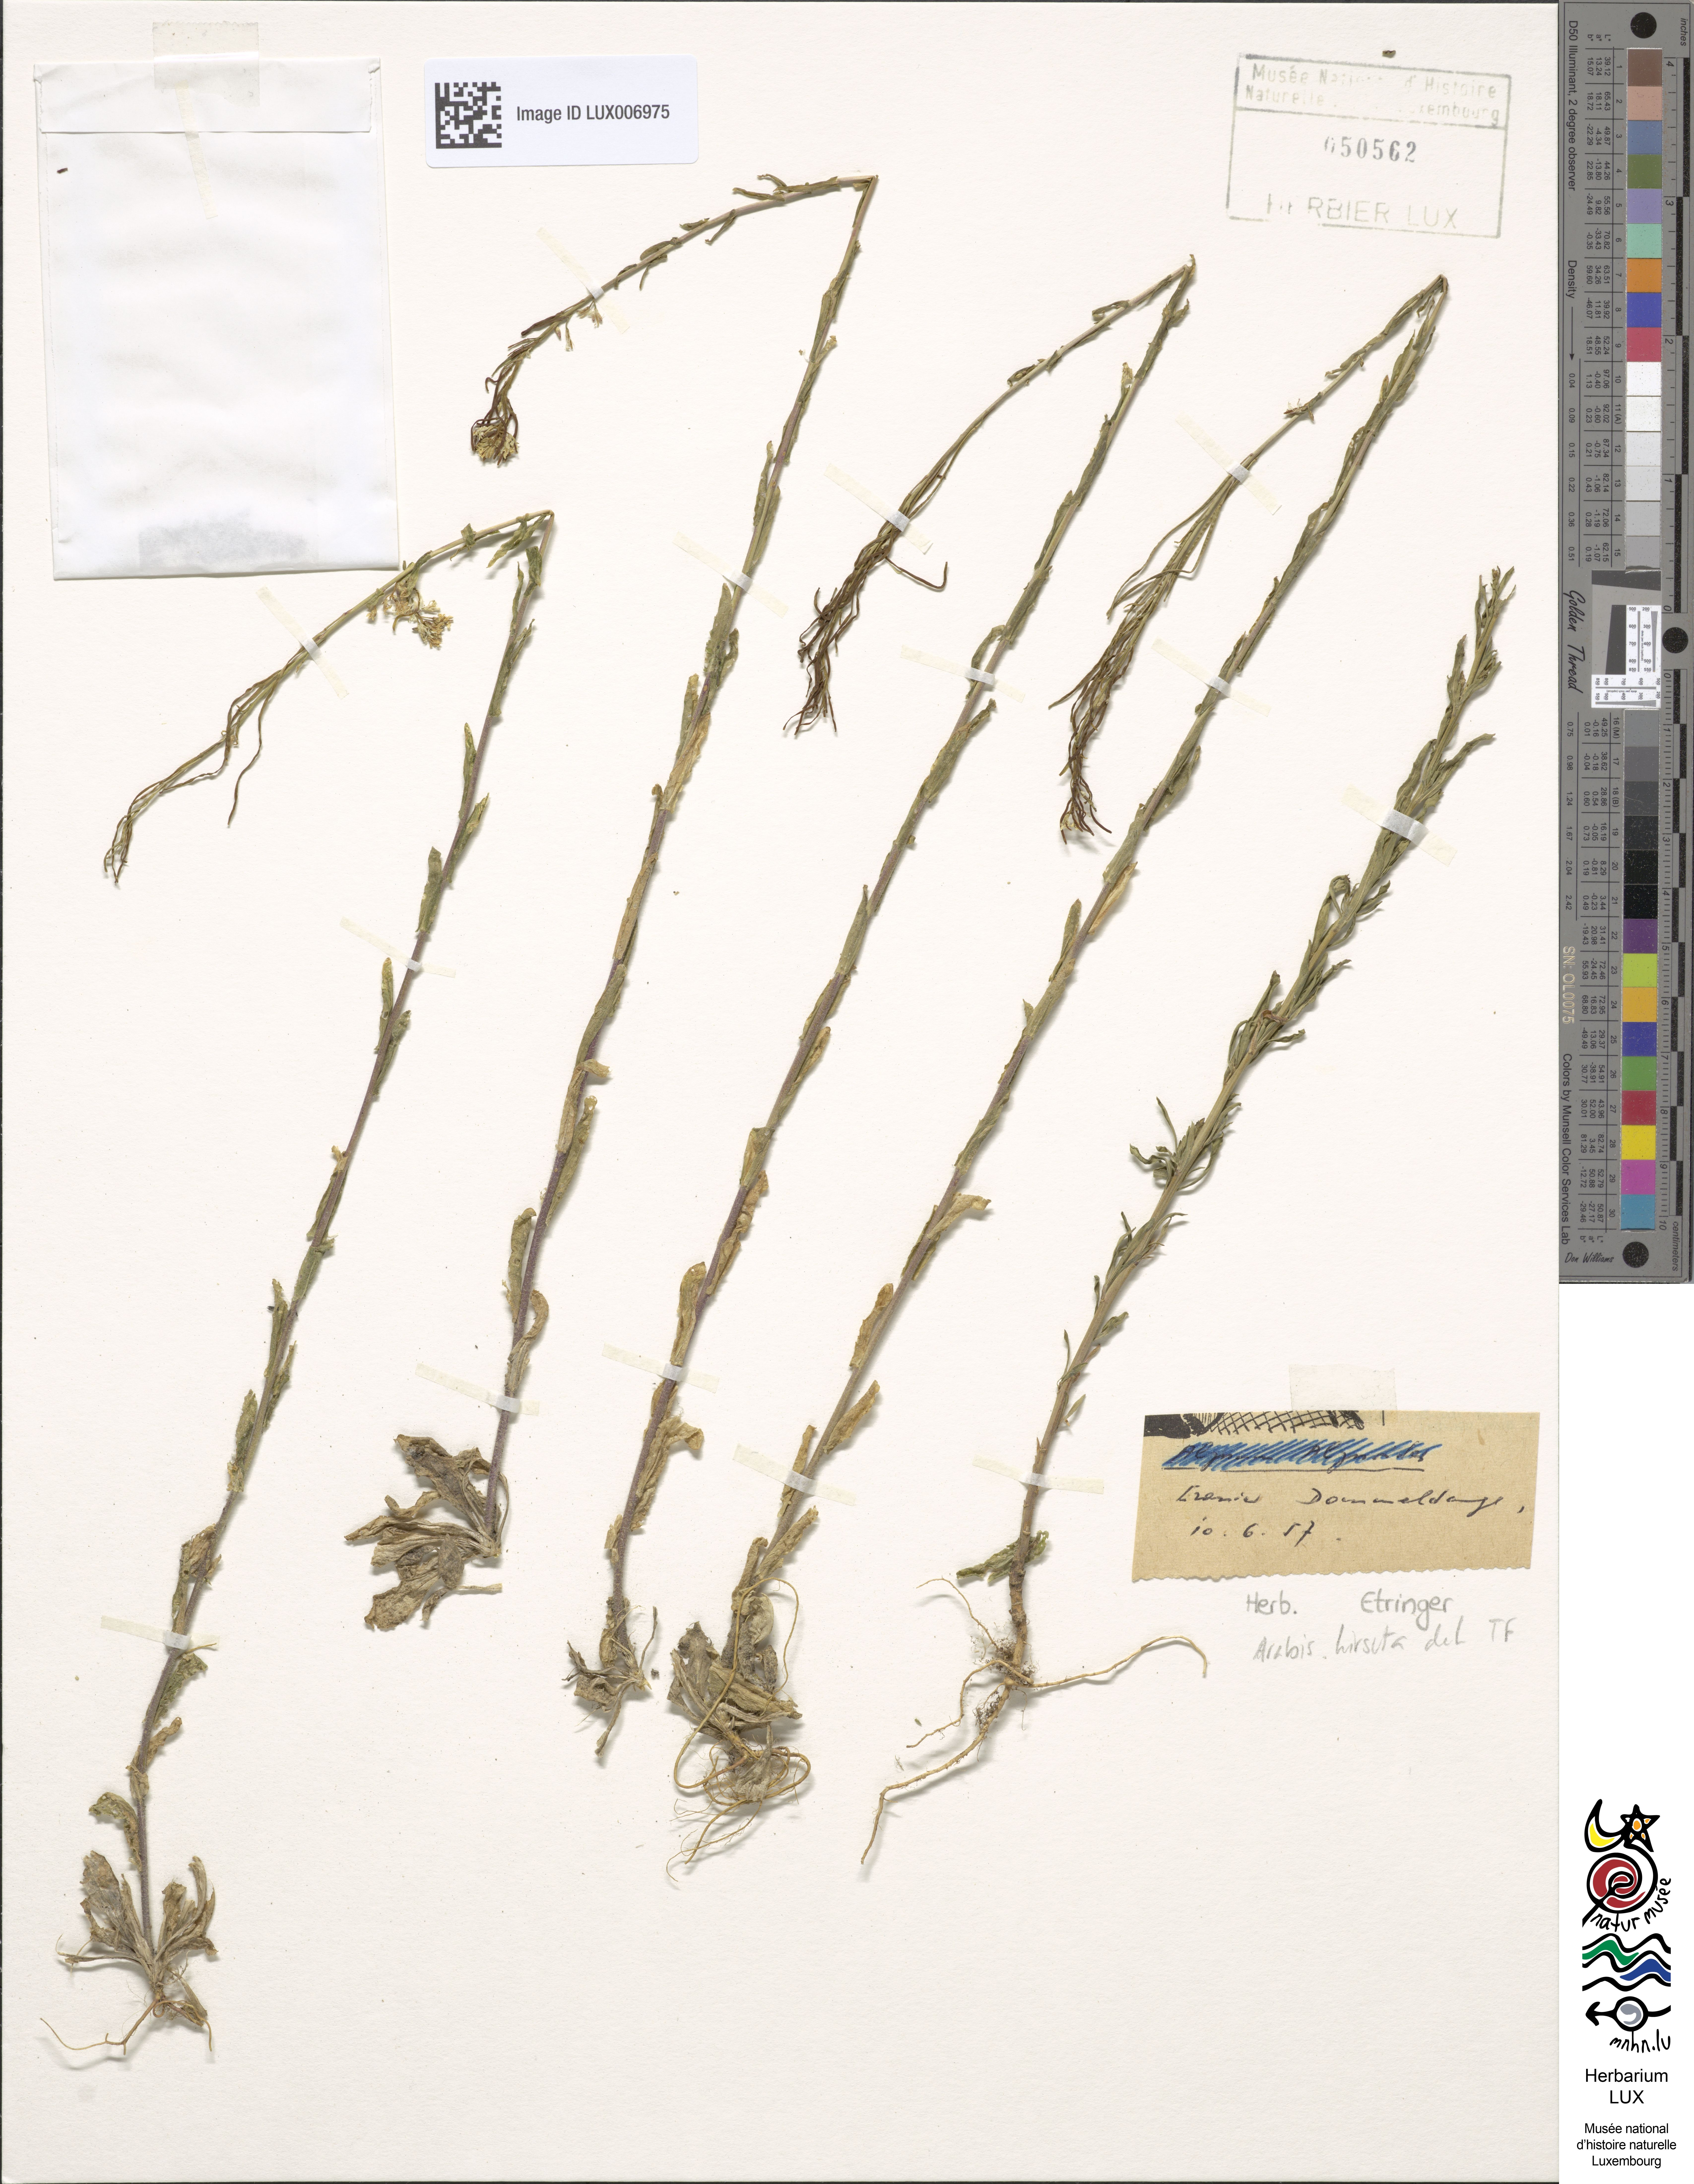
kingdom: Plantae
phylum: Tracheophyta
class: Magnoliopsida
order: Brassicales
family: Brassicaceae
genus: Arabis
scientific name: Arabis hirsuta
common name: Hairy rock-cress
